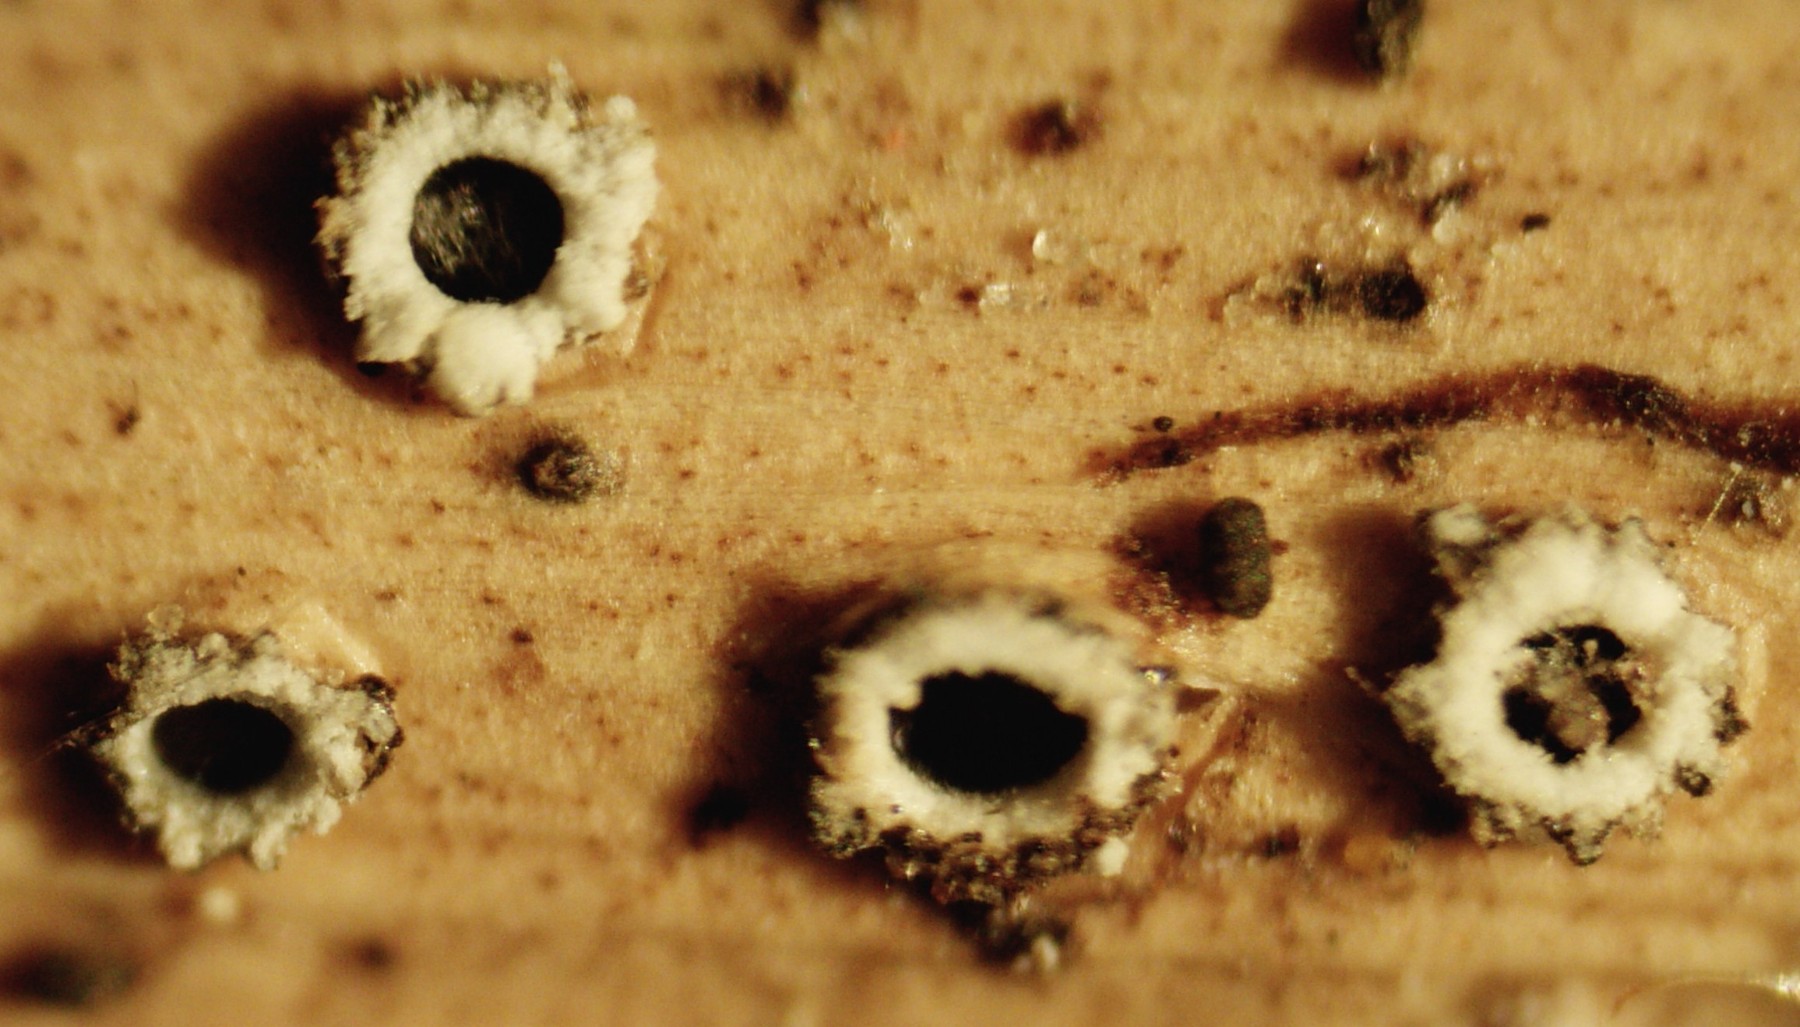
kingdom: Fungi
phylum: Ascomycota
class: Lecanoromycetes
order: Ostropales
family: Stictidaceae
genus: Stictis
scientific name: Stictis radiata
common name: tandet barkhul
